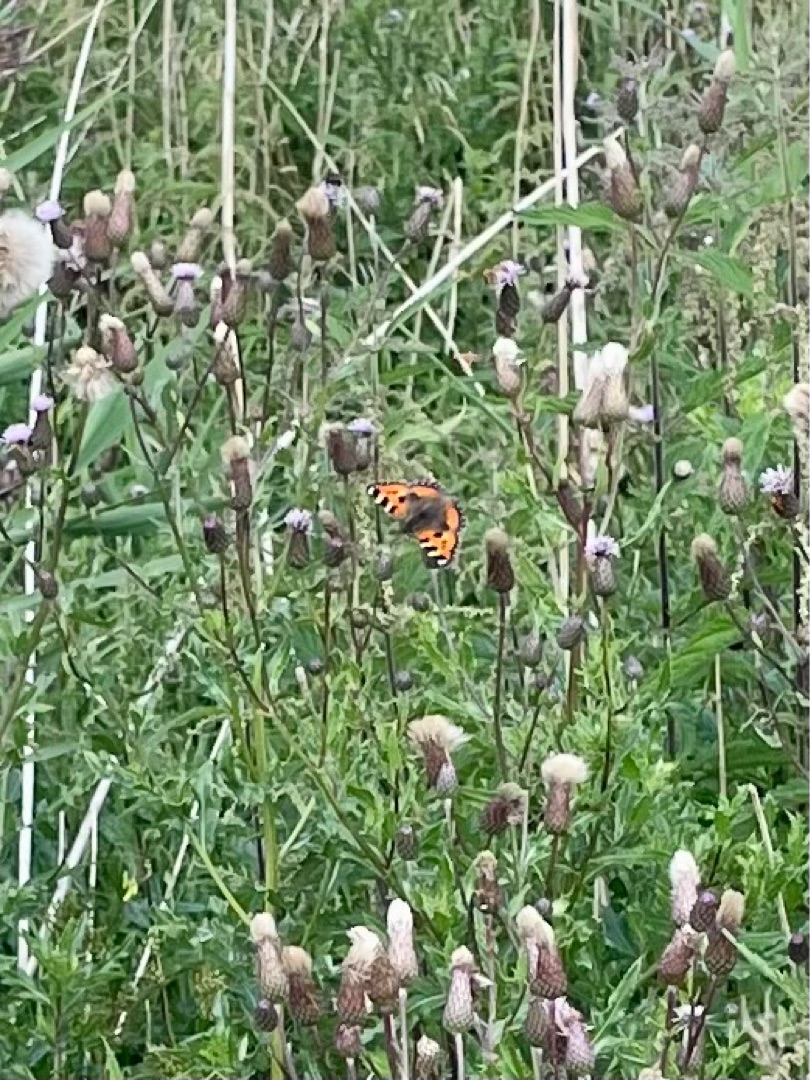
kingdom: Animalia
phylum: Arthropoda
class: Insecta
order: Lepidoptera
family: Nymphalidae
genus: Aglais
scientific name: Aglais urticae
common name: Nældens takvinge
